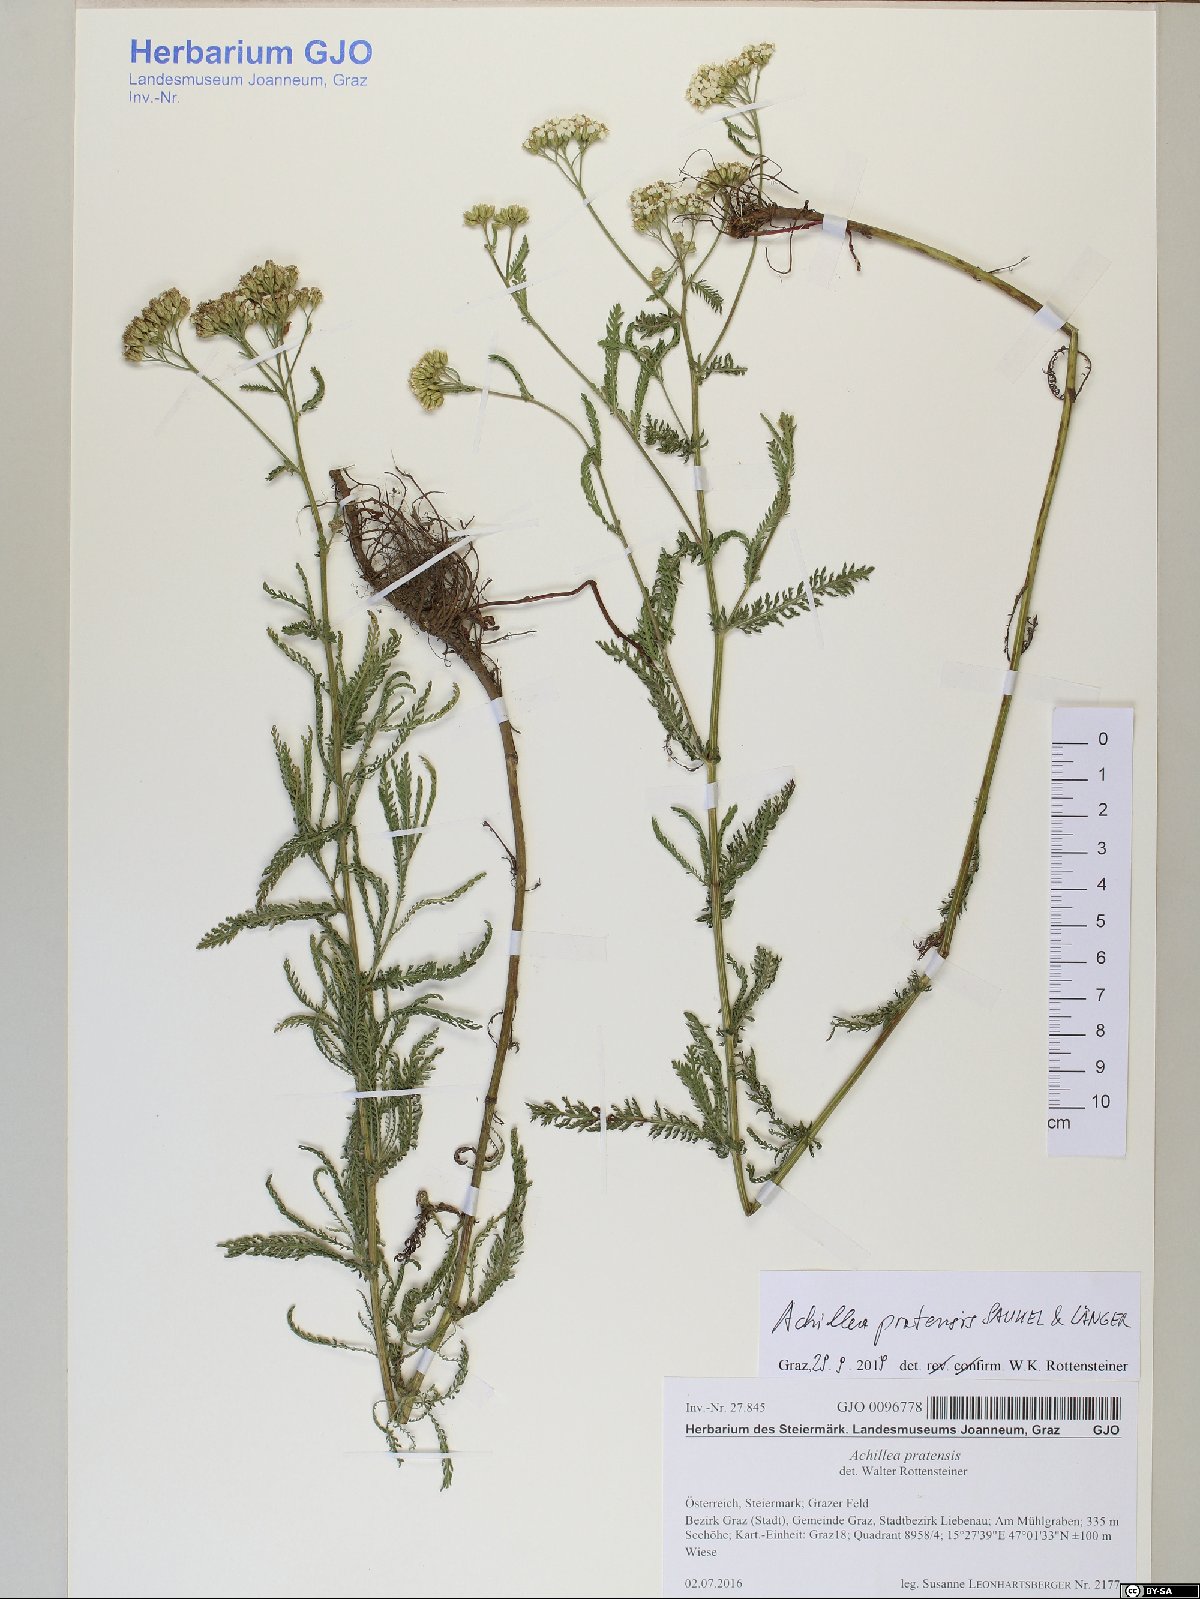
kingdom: Plantae
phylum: Tracheophyta
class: Magnoliopsida
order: Asterales
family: Asteraceae
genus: Achillea
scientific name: Achillea pratensis
